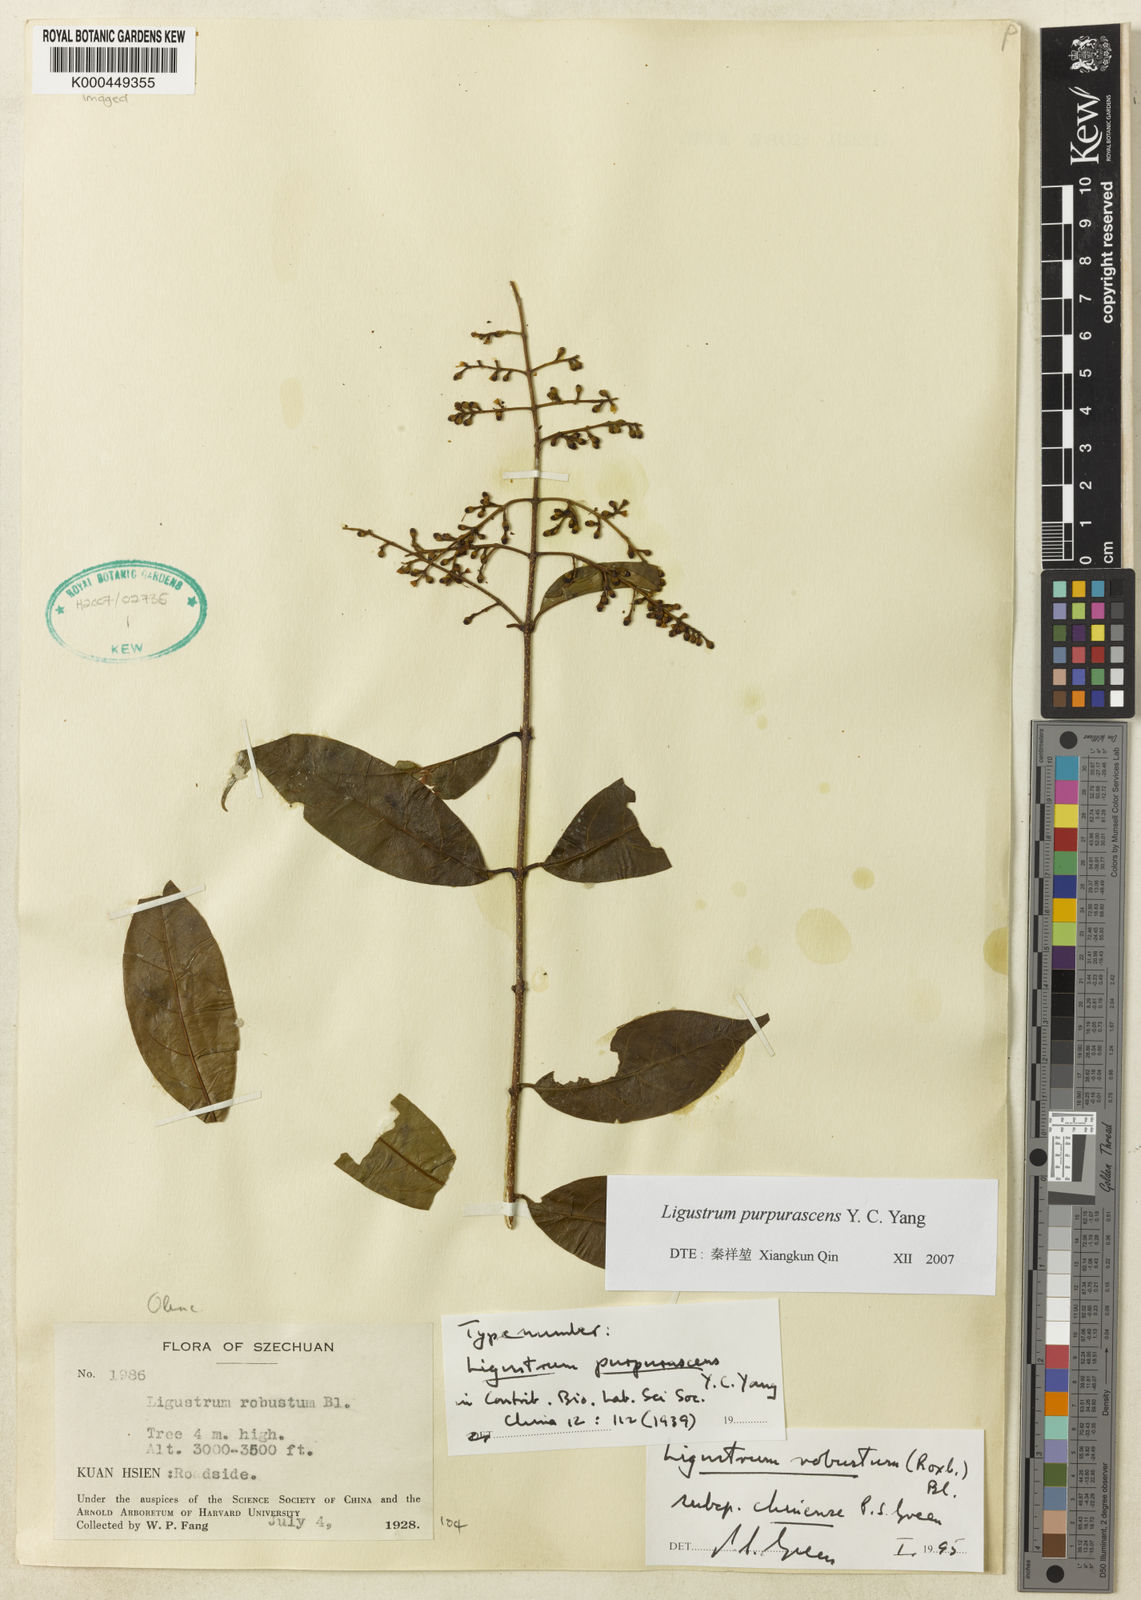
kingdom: Plantae
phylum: Tracheophyta
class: Magnoliopsida
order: Lamiales
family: Oleaceae
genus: Ligustrum
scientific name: Ligustrum expansum
